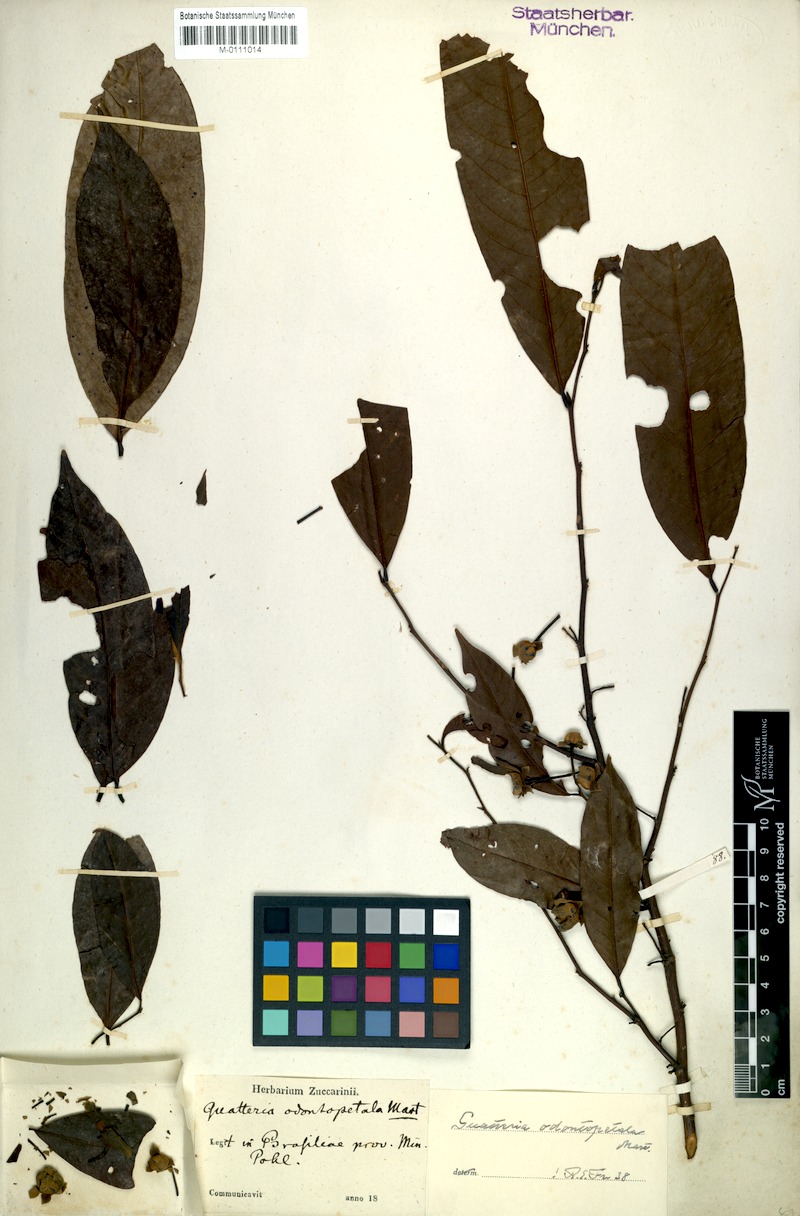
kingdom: Plantae
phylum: Tracheophyta
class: Magnoliopsida
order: Magnoliales
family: Annonaceae
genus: Guatteria
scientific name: Guatteria australis
